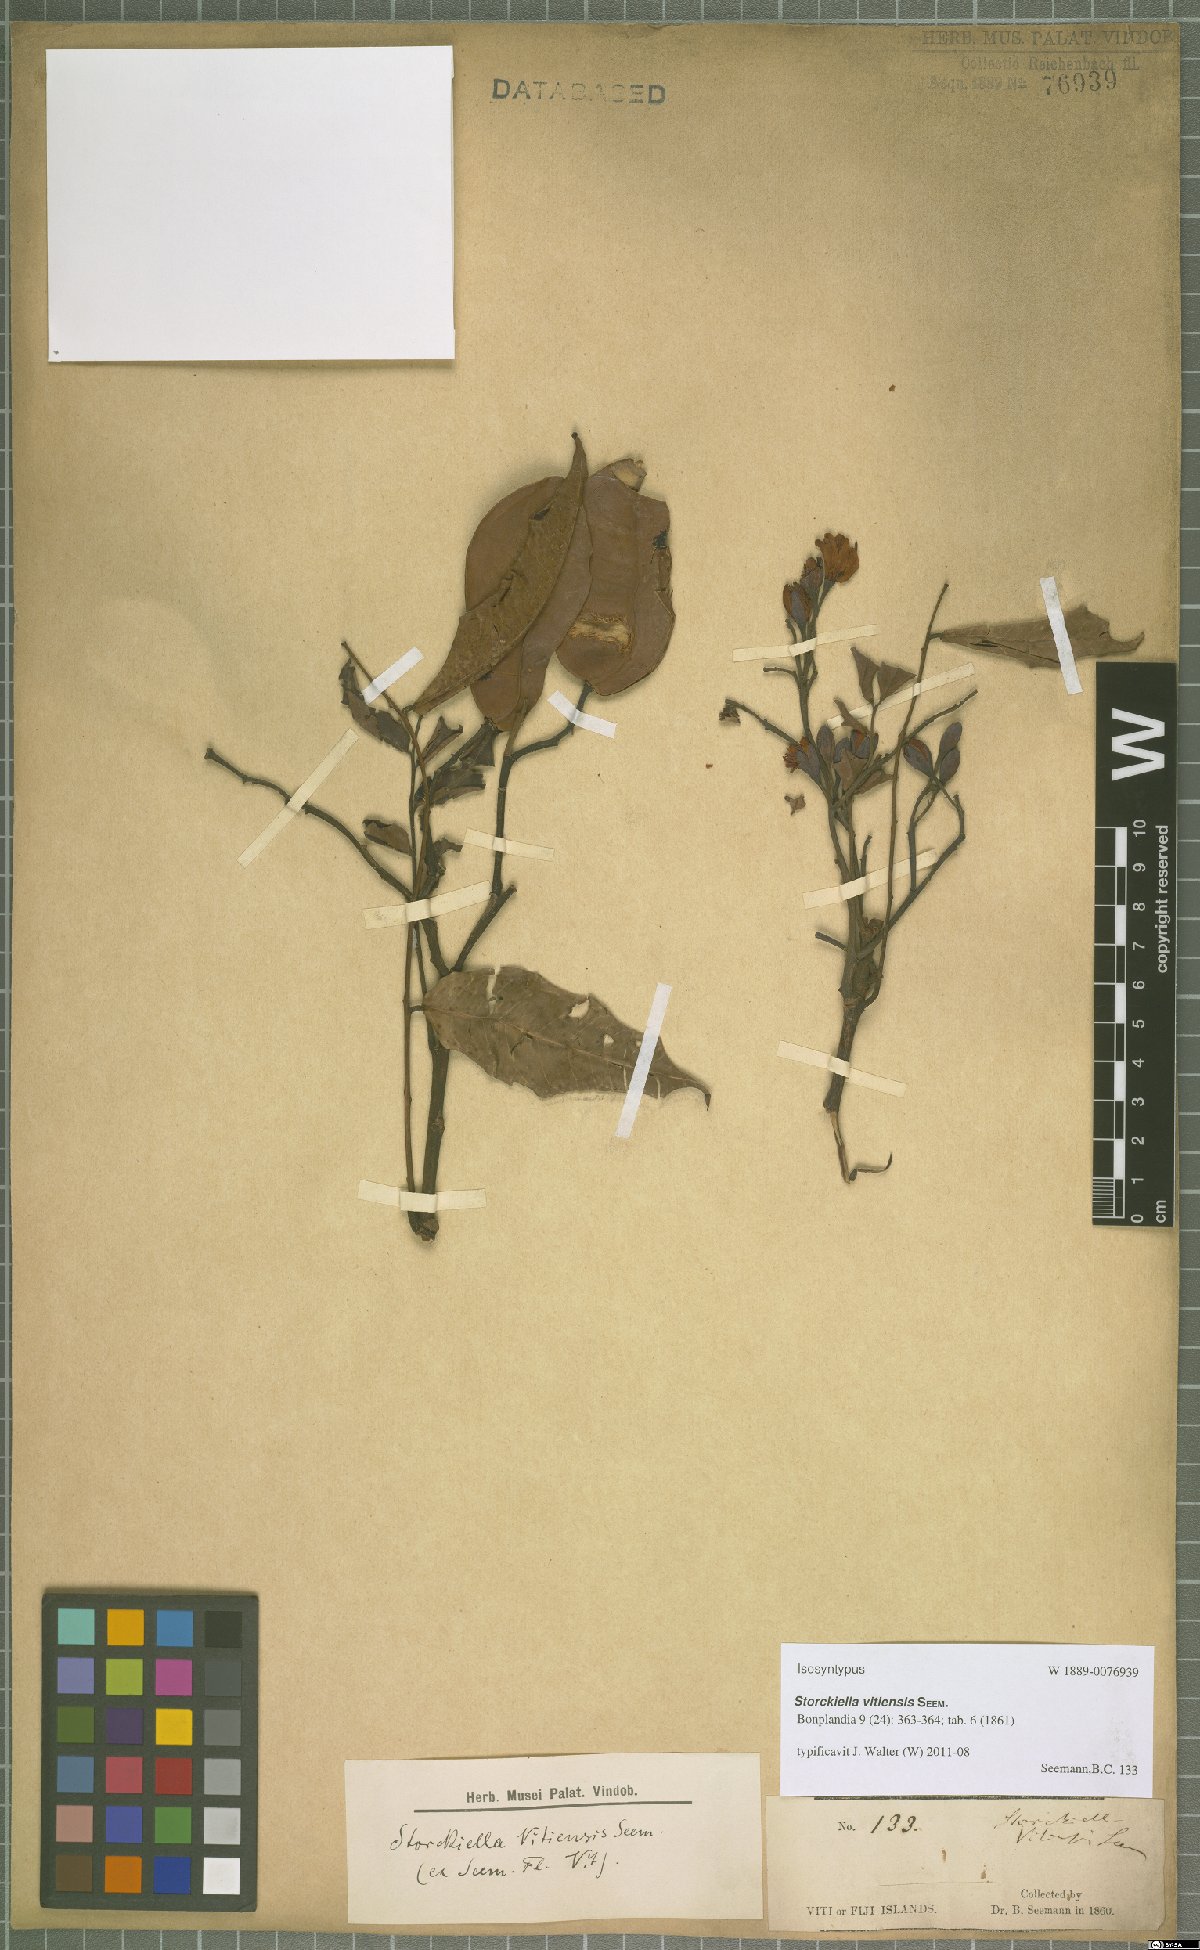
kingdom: Plantae
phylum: Tracheophyta
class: Magnoliopsida
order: Fabales
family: Fabaceae
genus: Storckiella
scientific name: Storckiella vitiensis
